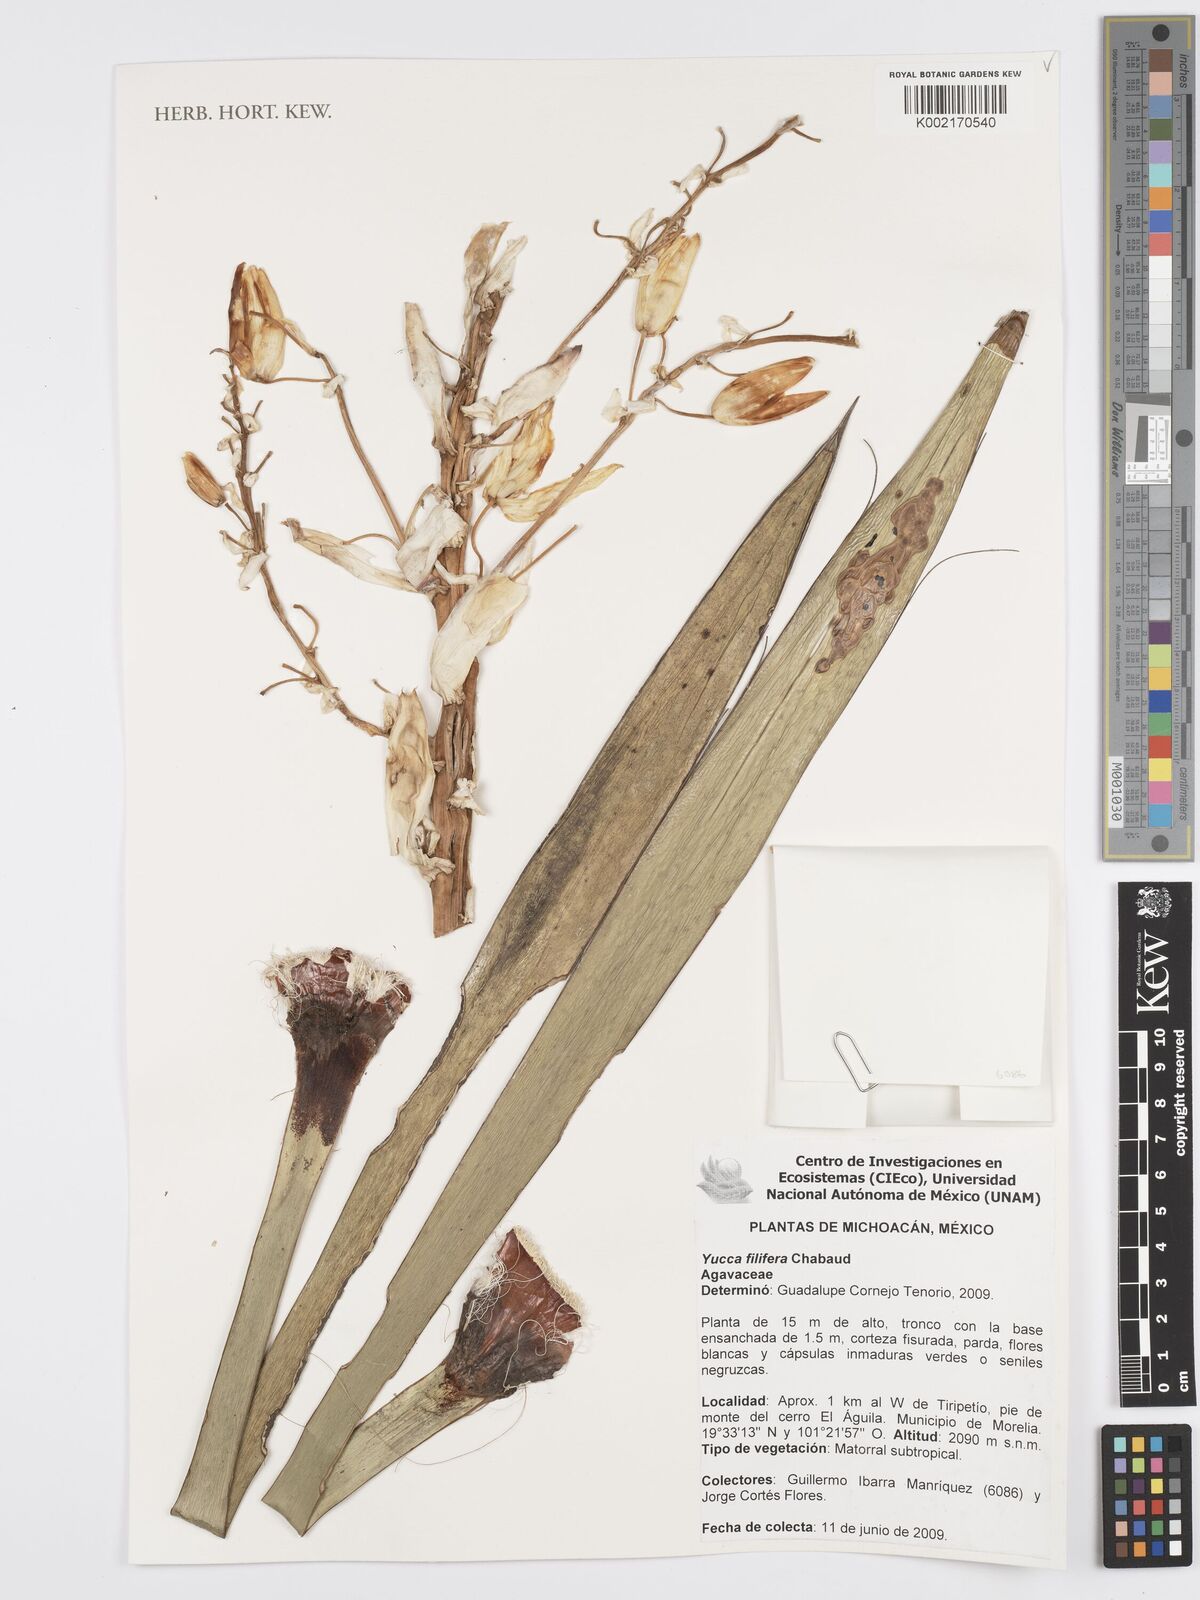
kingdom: Plantae
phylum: Tracheophyta
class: Liliopsida
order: Asparagales
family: Asparagaceae
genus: Yucca
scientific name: Yucca filifera
